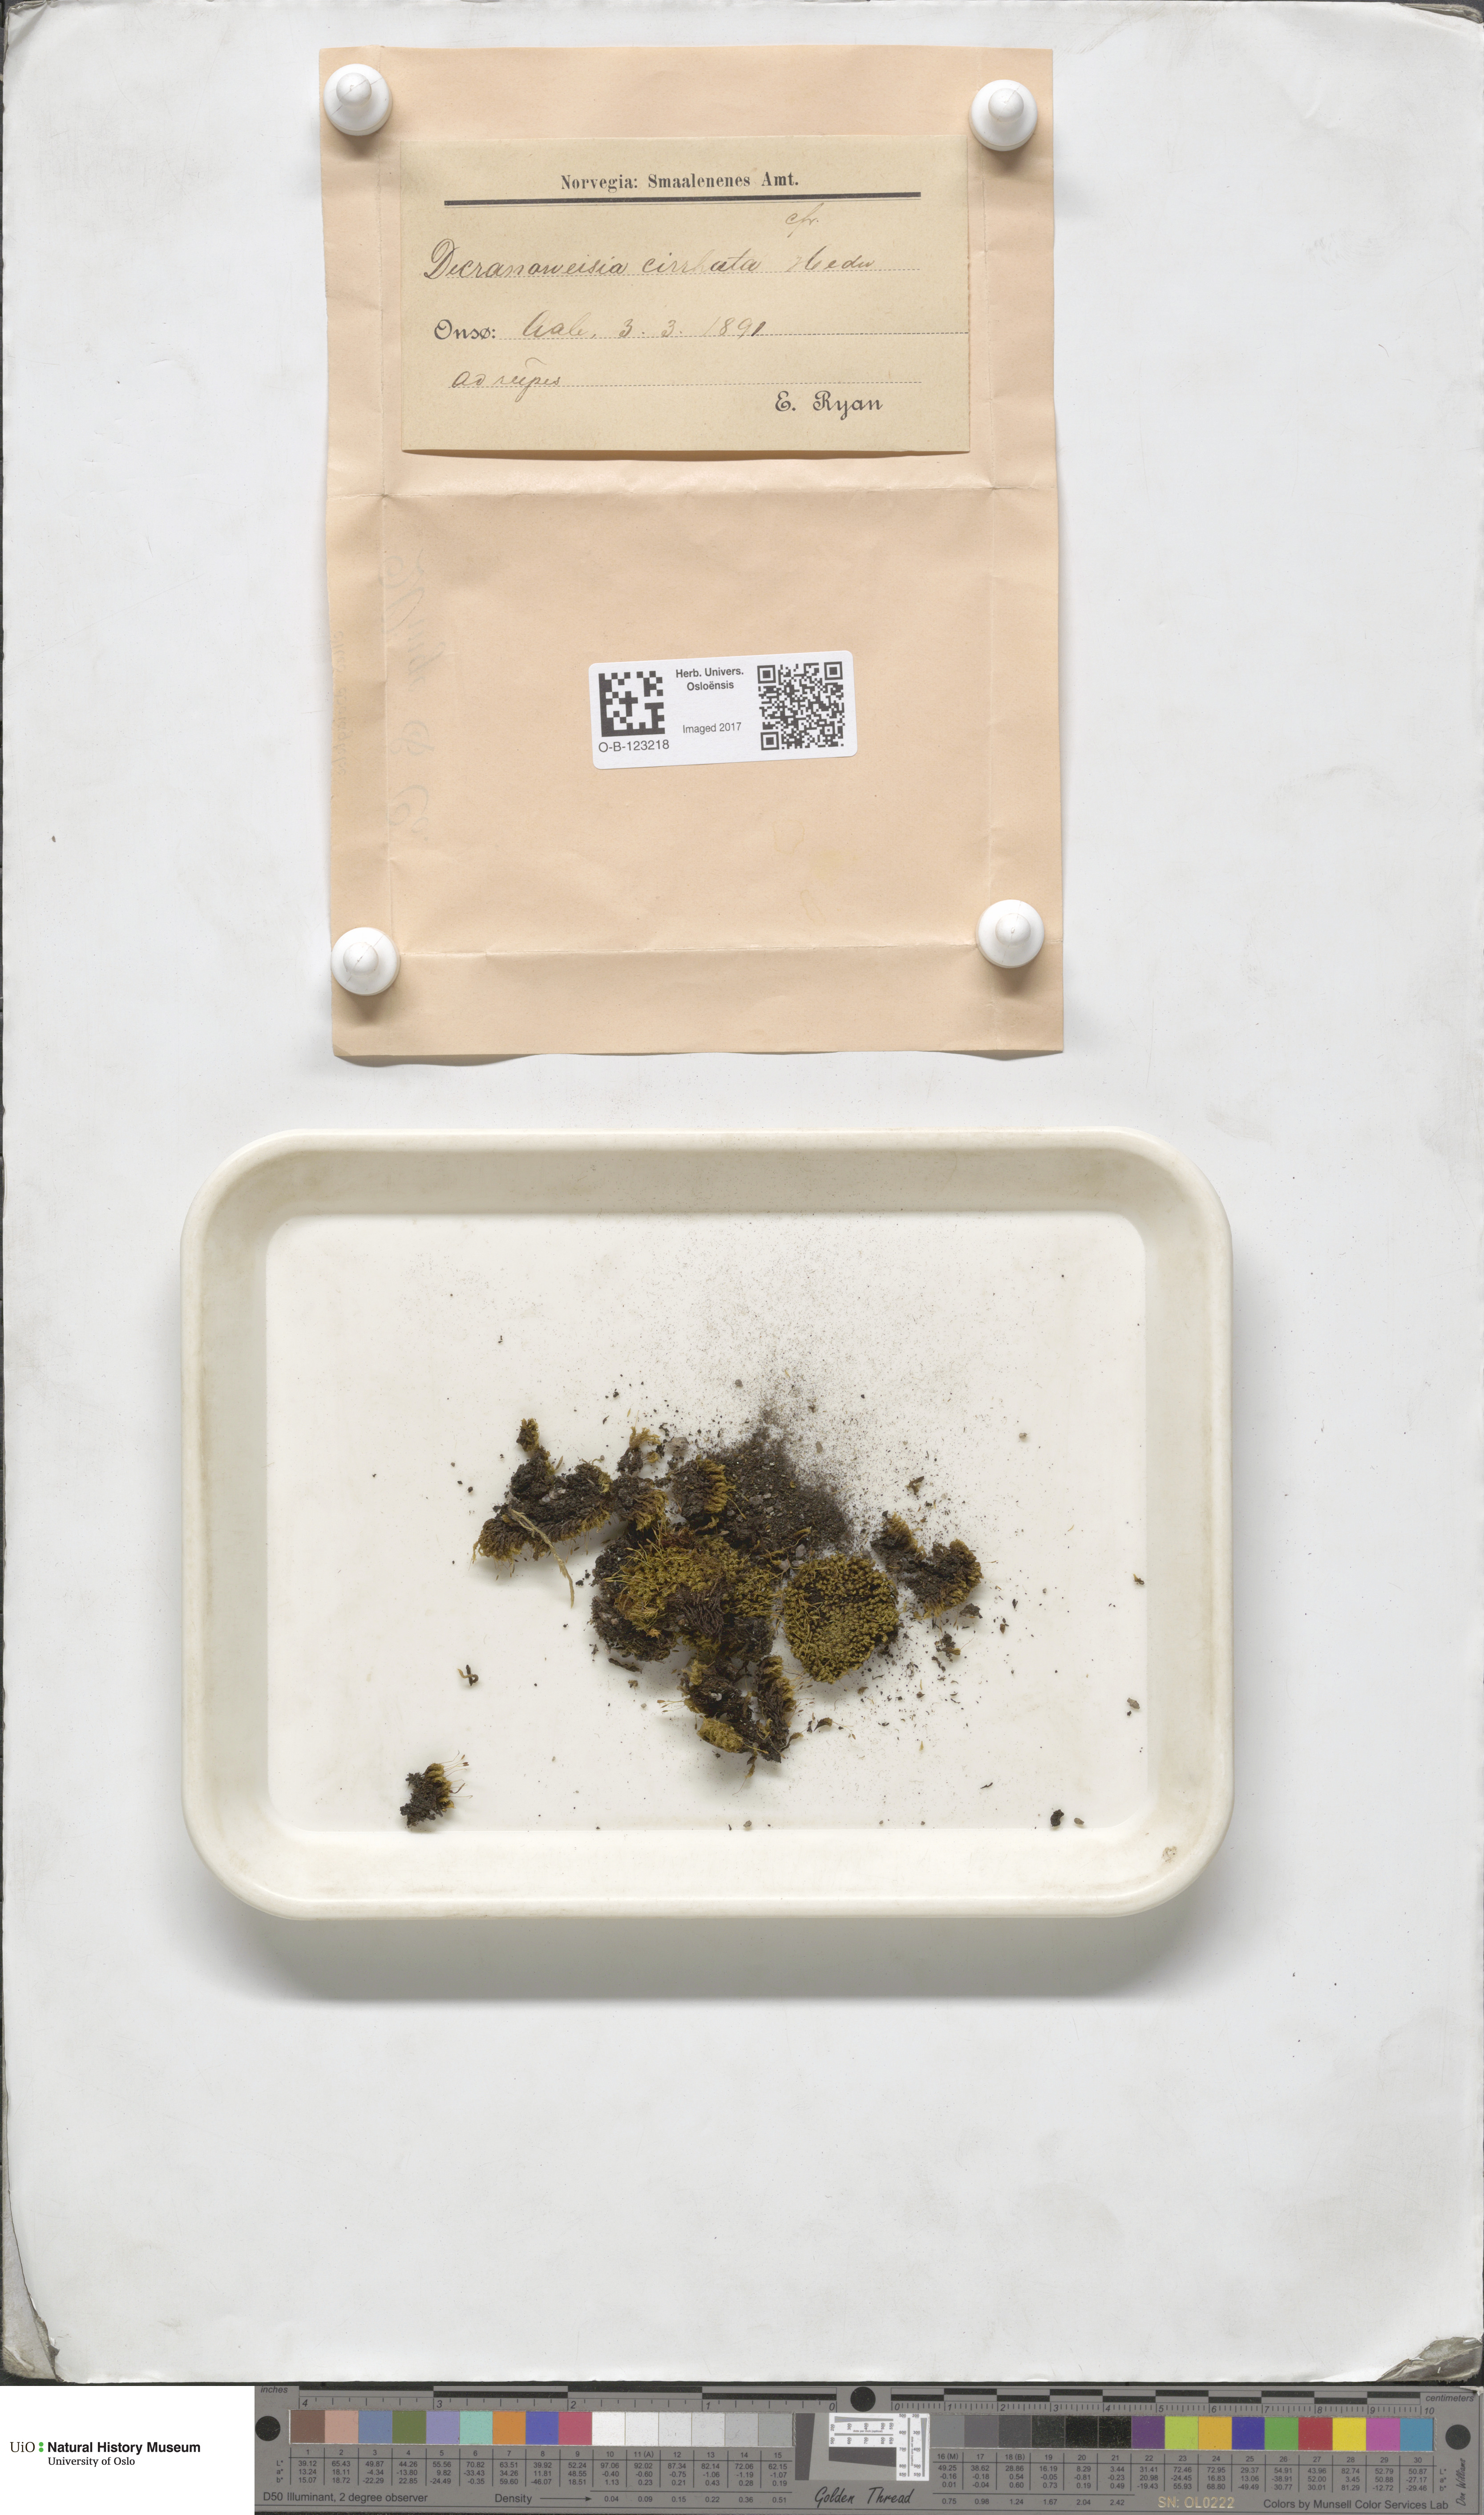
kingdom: Plantae
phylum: Bryophyta
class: Bryopsida
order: Dicranales
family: Rhabdoweisiaceae
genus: Dicranoweisia
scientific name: Dicranoweisia cirrata
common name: Common pincushion
